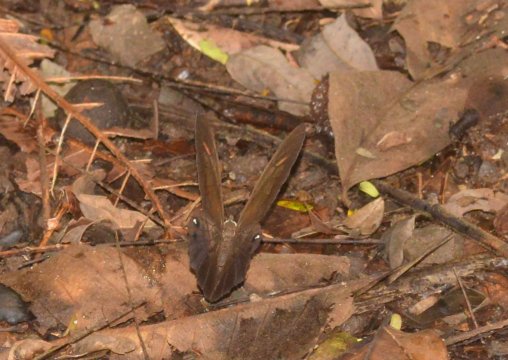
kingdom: Animalia
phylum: Arthropoda
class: Insecta
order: Lepidoptera
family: Nymphalidae
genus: Pierella
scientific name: Pierella luna
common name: Moon Satyr
